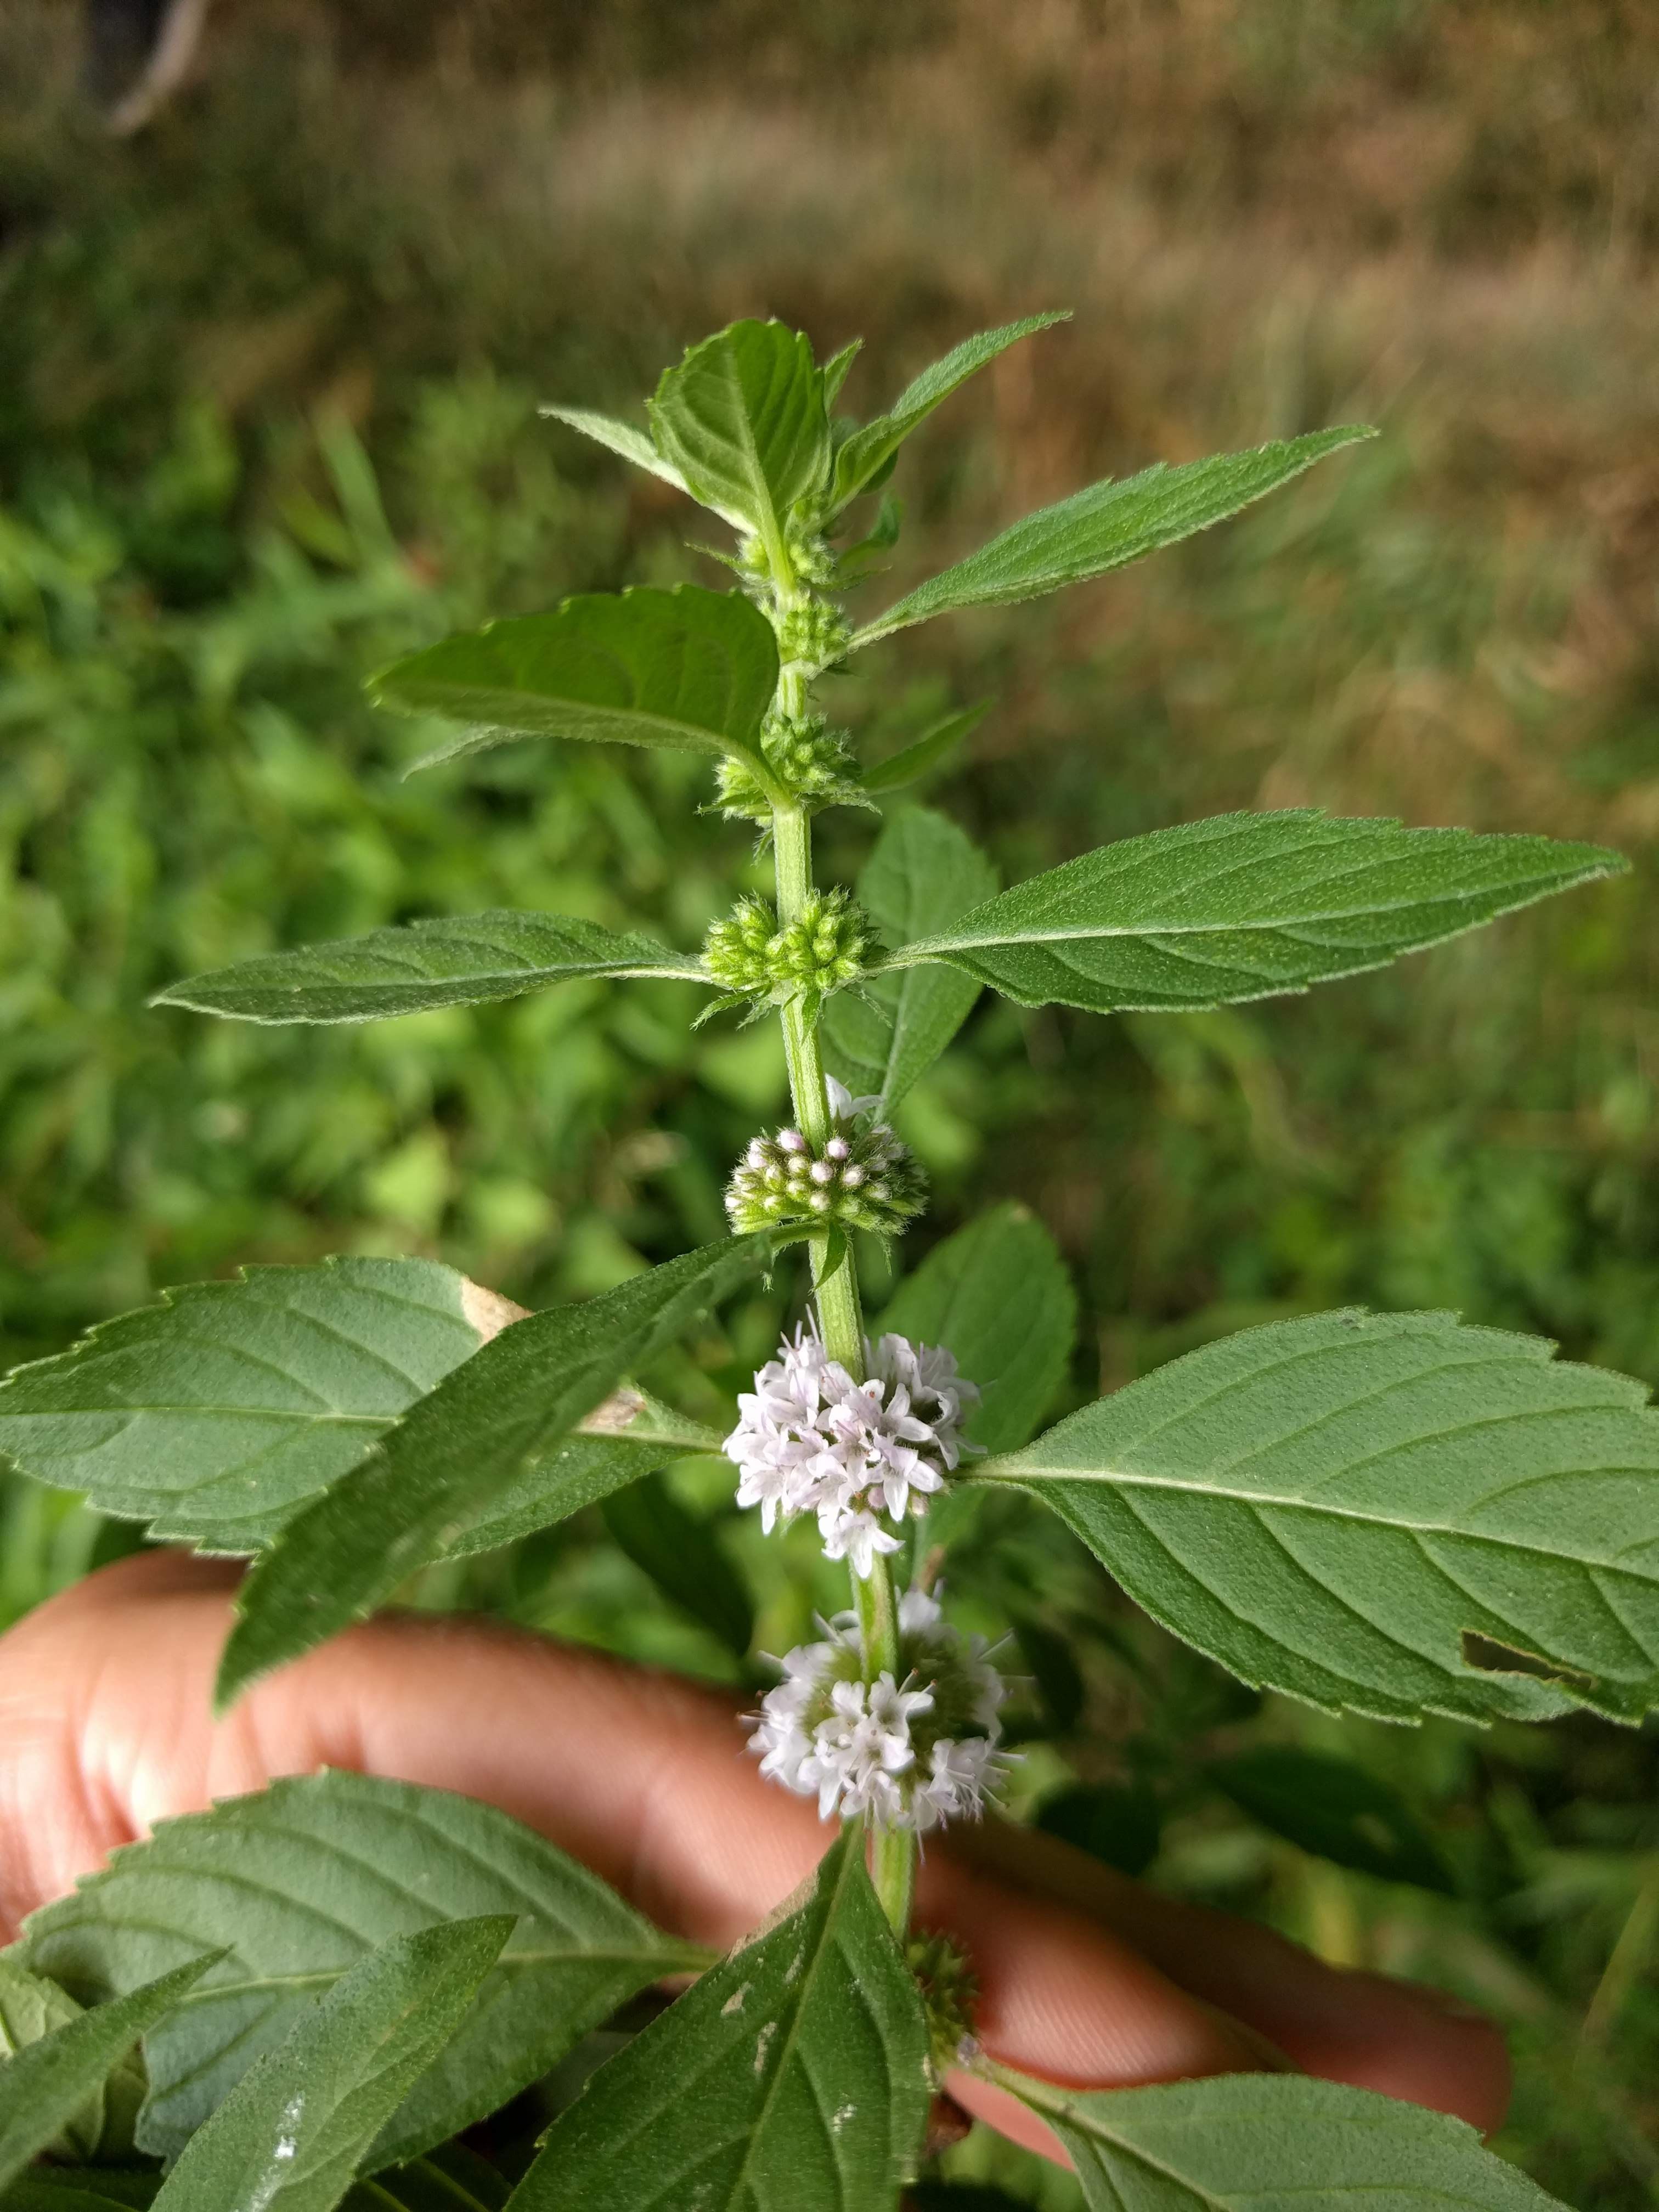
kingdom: Plantae
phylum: Tracheophyta
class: Magnoliopsida
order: Lamiales
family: Lamiaceae
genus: Mentha
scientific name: Mentha arvensis
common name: Corn mint
